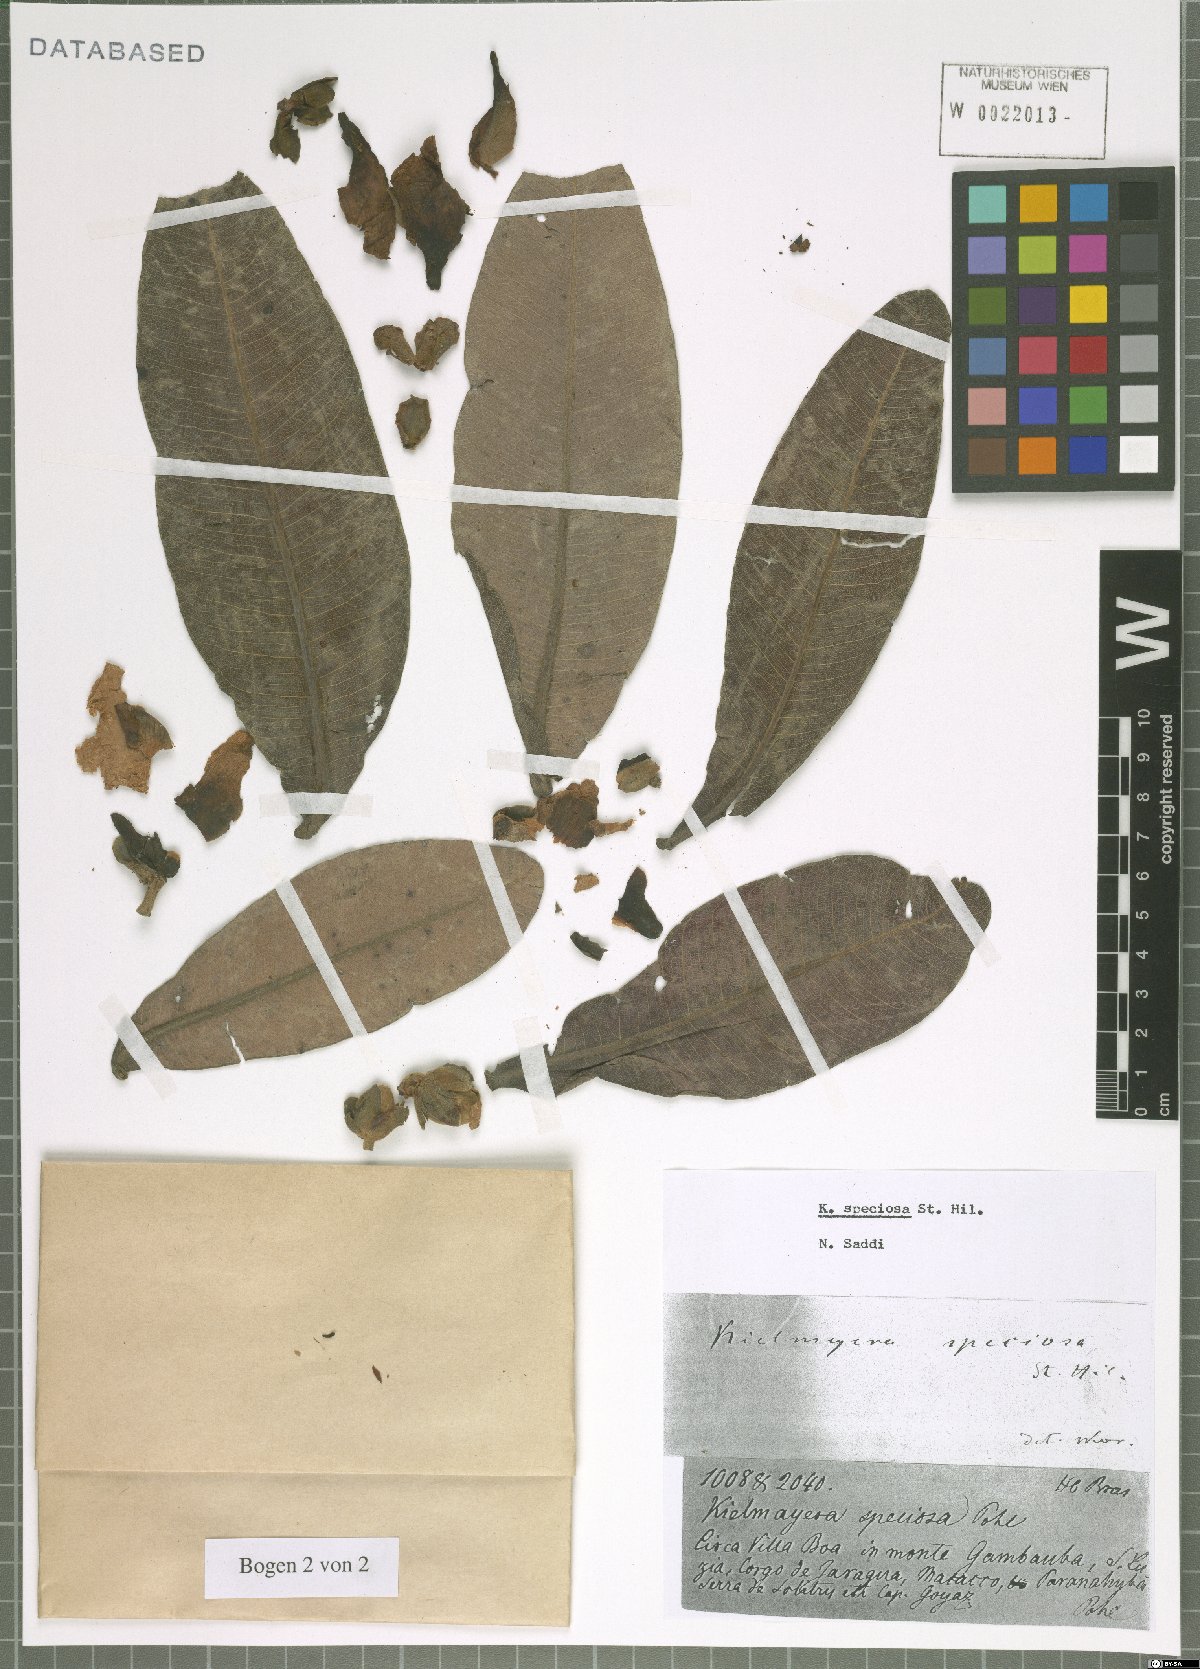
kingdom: Plantae
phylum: Tracheophyta
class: Magnoliopsida
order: Malpighiales
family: Calophyllaceae
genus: Kielmeyera
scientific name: Kielmeyera speciosa
